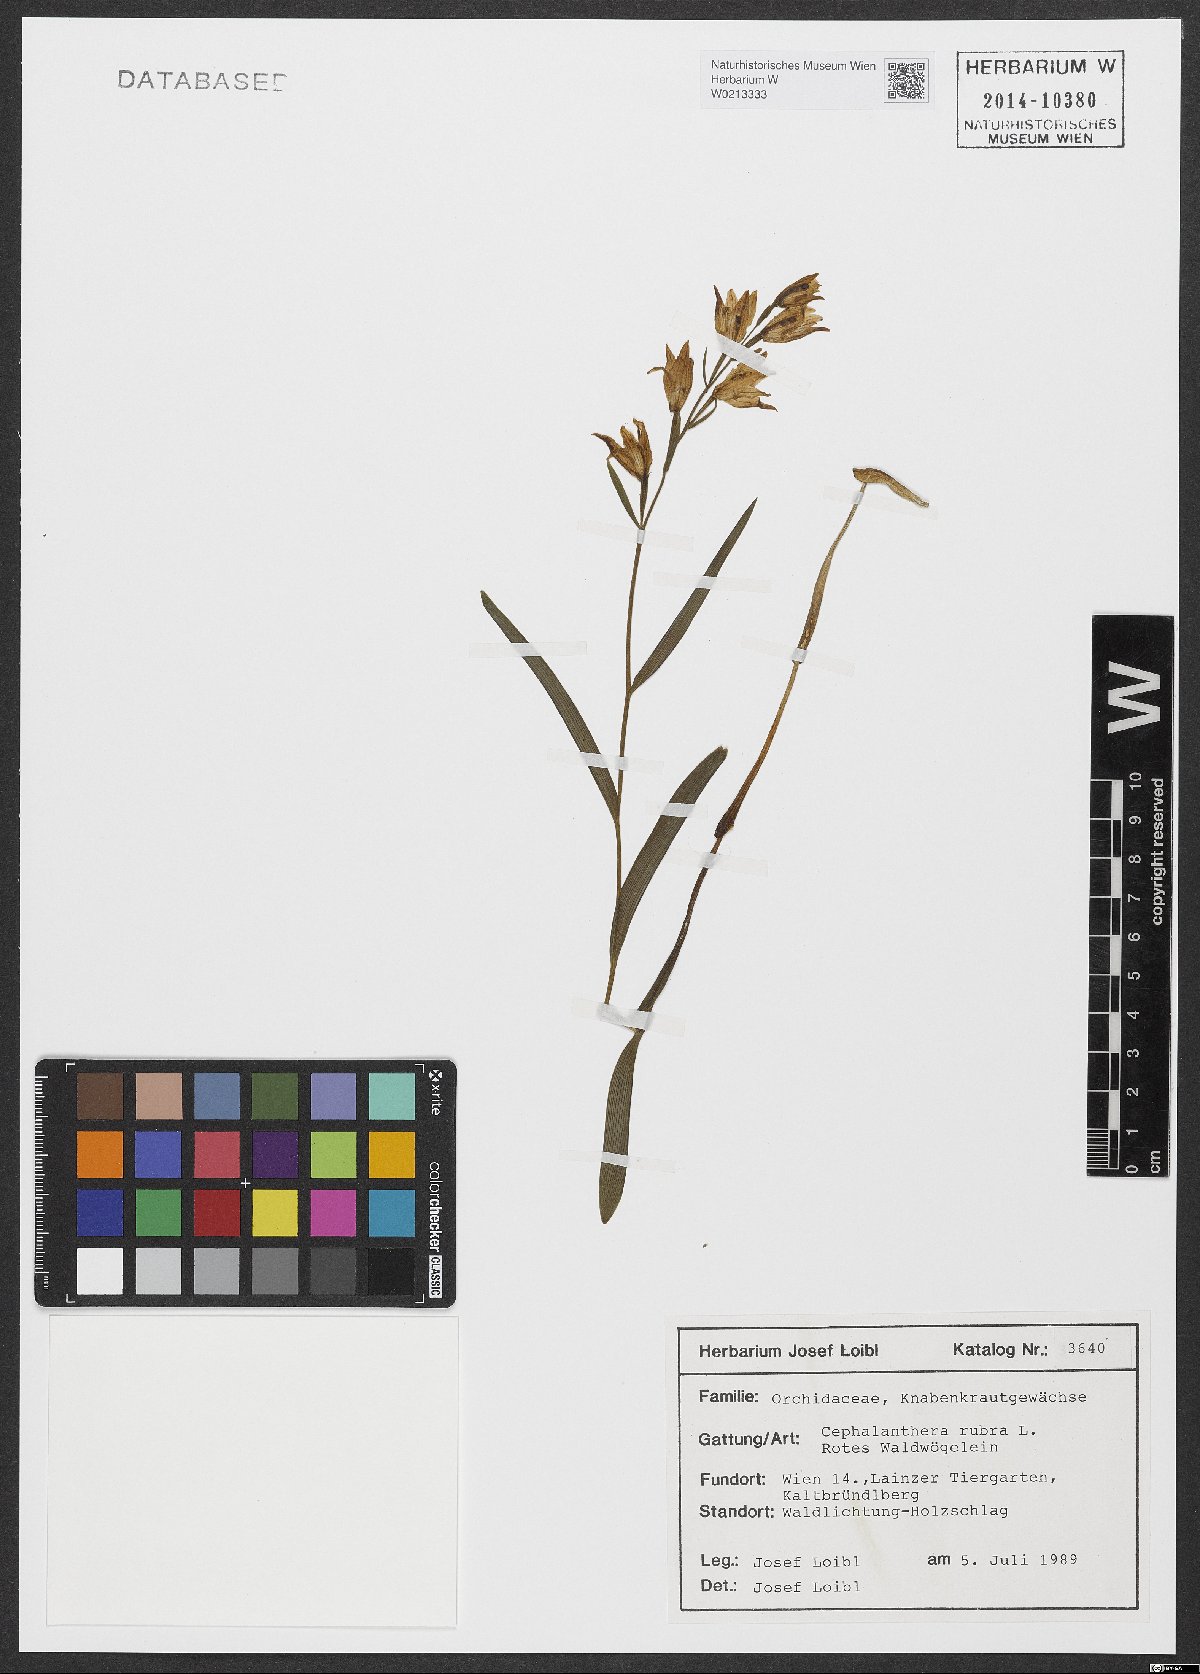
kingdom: Plantae
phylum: Tracheophyta
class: Liliopsida
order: Asparagales
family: Orchidaceae
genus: Cephalanthera
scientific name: Cephalanthera rubra
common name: Red helleborine
